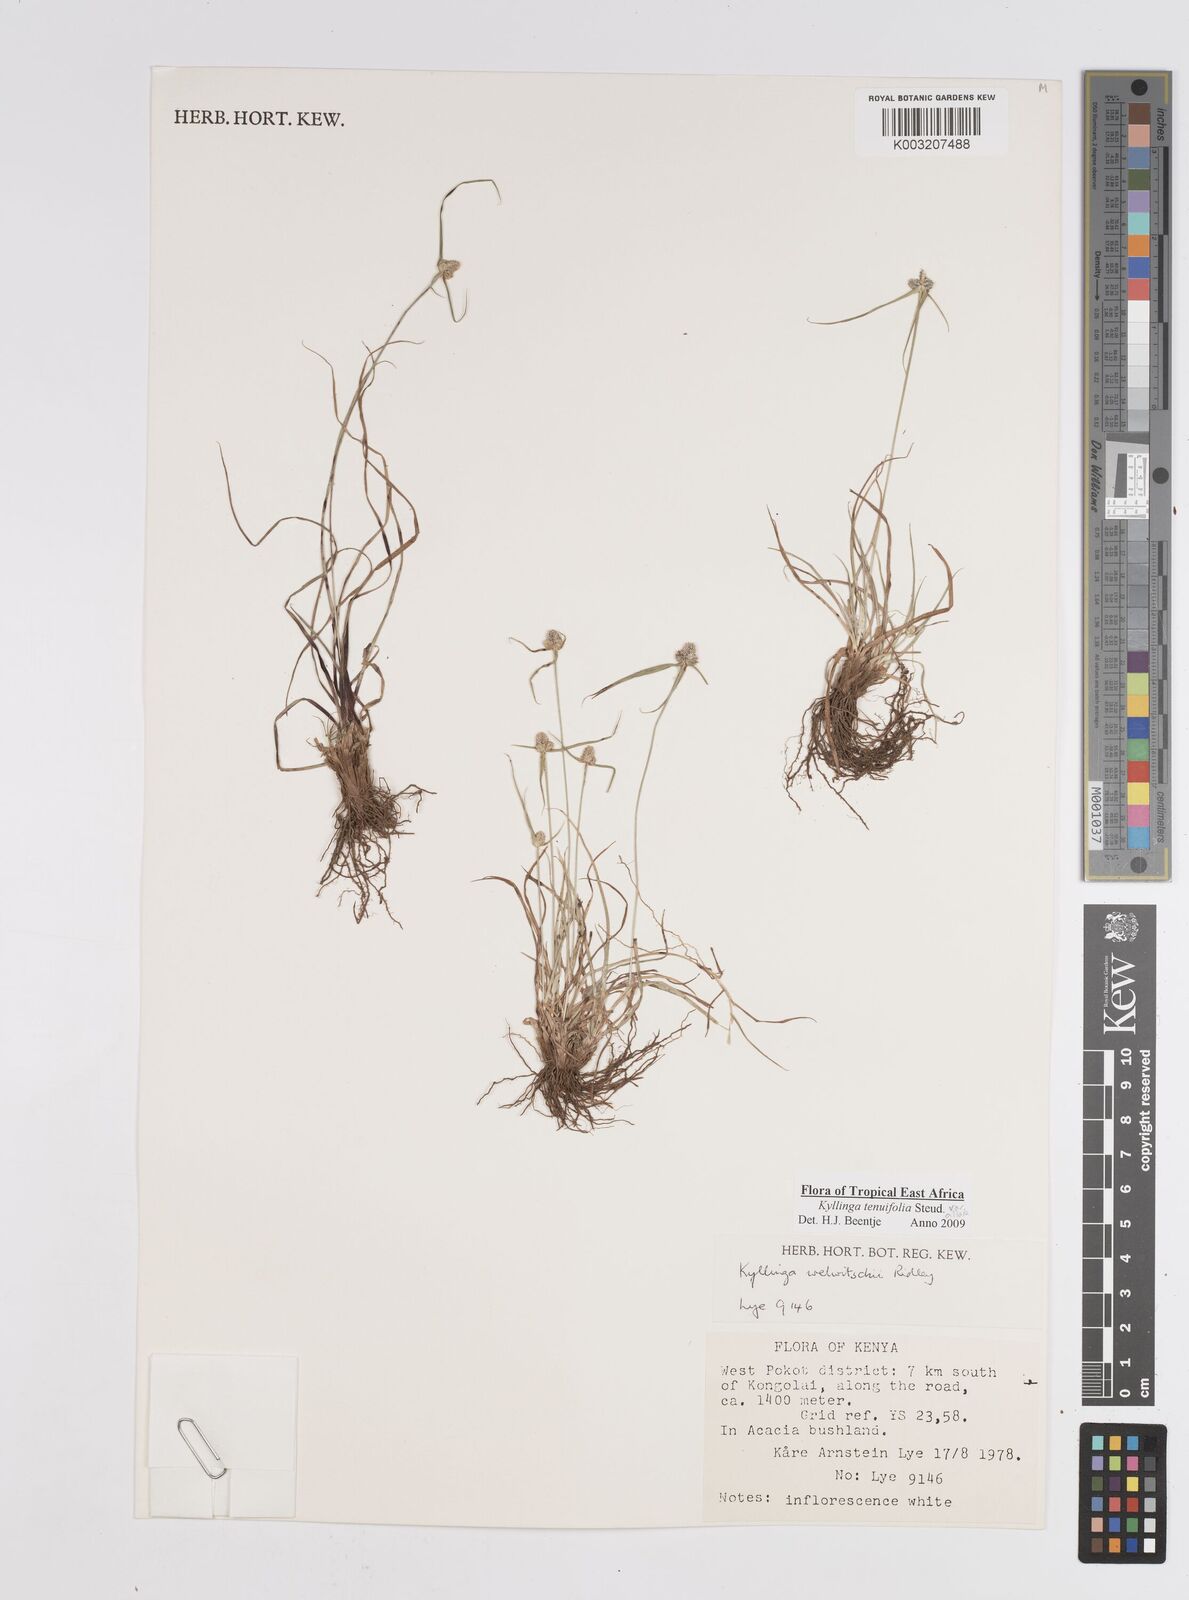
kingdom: Plantae
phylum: Tracheophyta
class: Liliopsida
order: Poales
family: Cyperaceae
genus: Cyperus
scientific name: Cyperus
